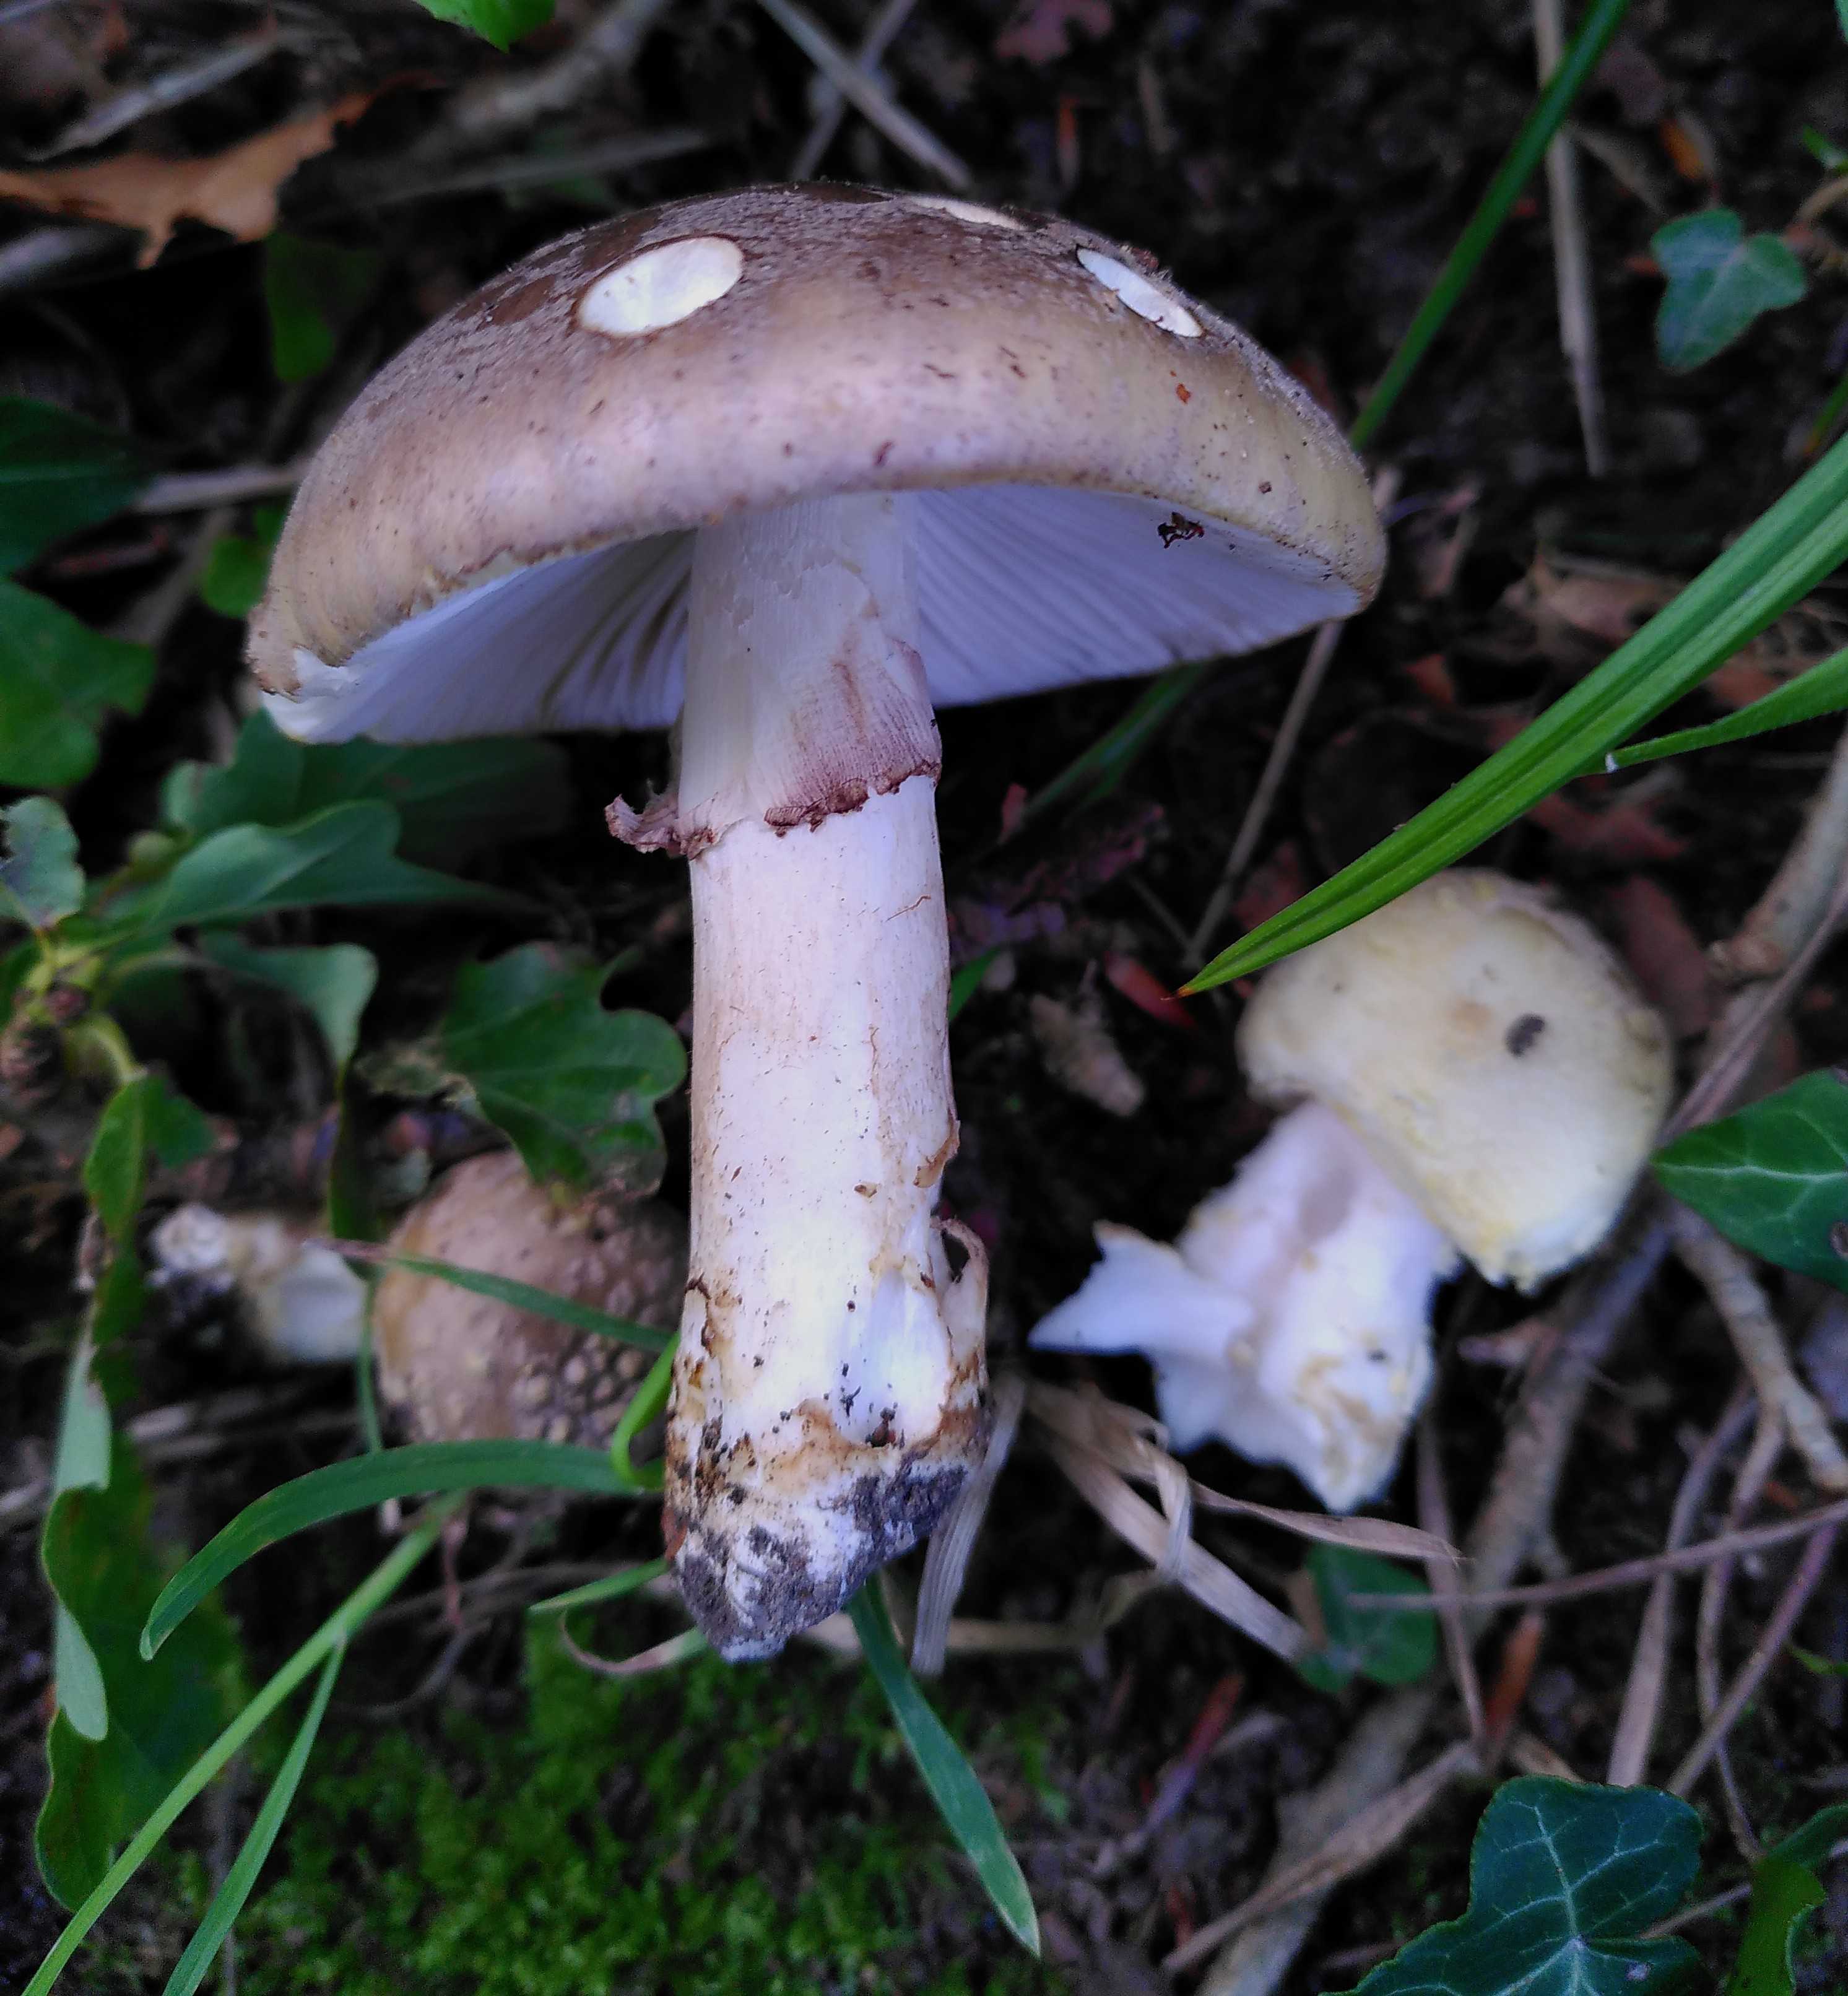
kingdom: Fungi
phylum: Basidiomycota
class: Agaricomycetes
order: Agaricales
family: Amanitaceae
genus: Amanita
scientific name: Amanita rubescens
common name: rødmende fluesvamp
